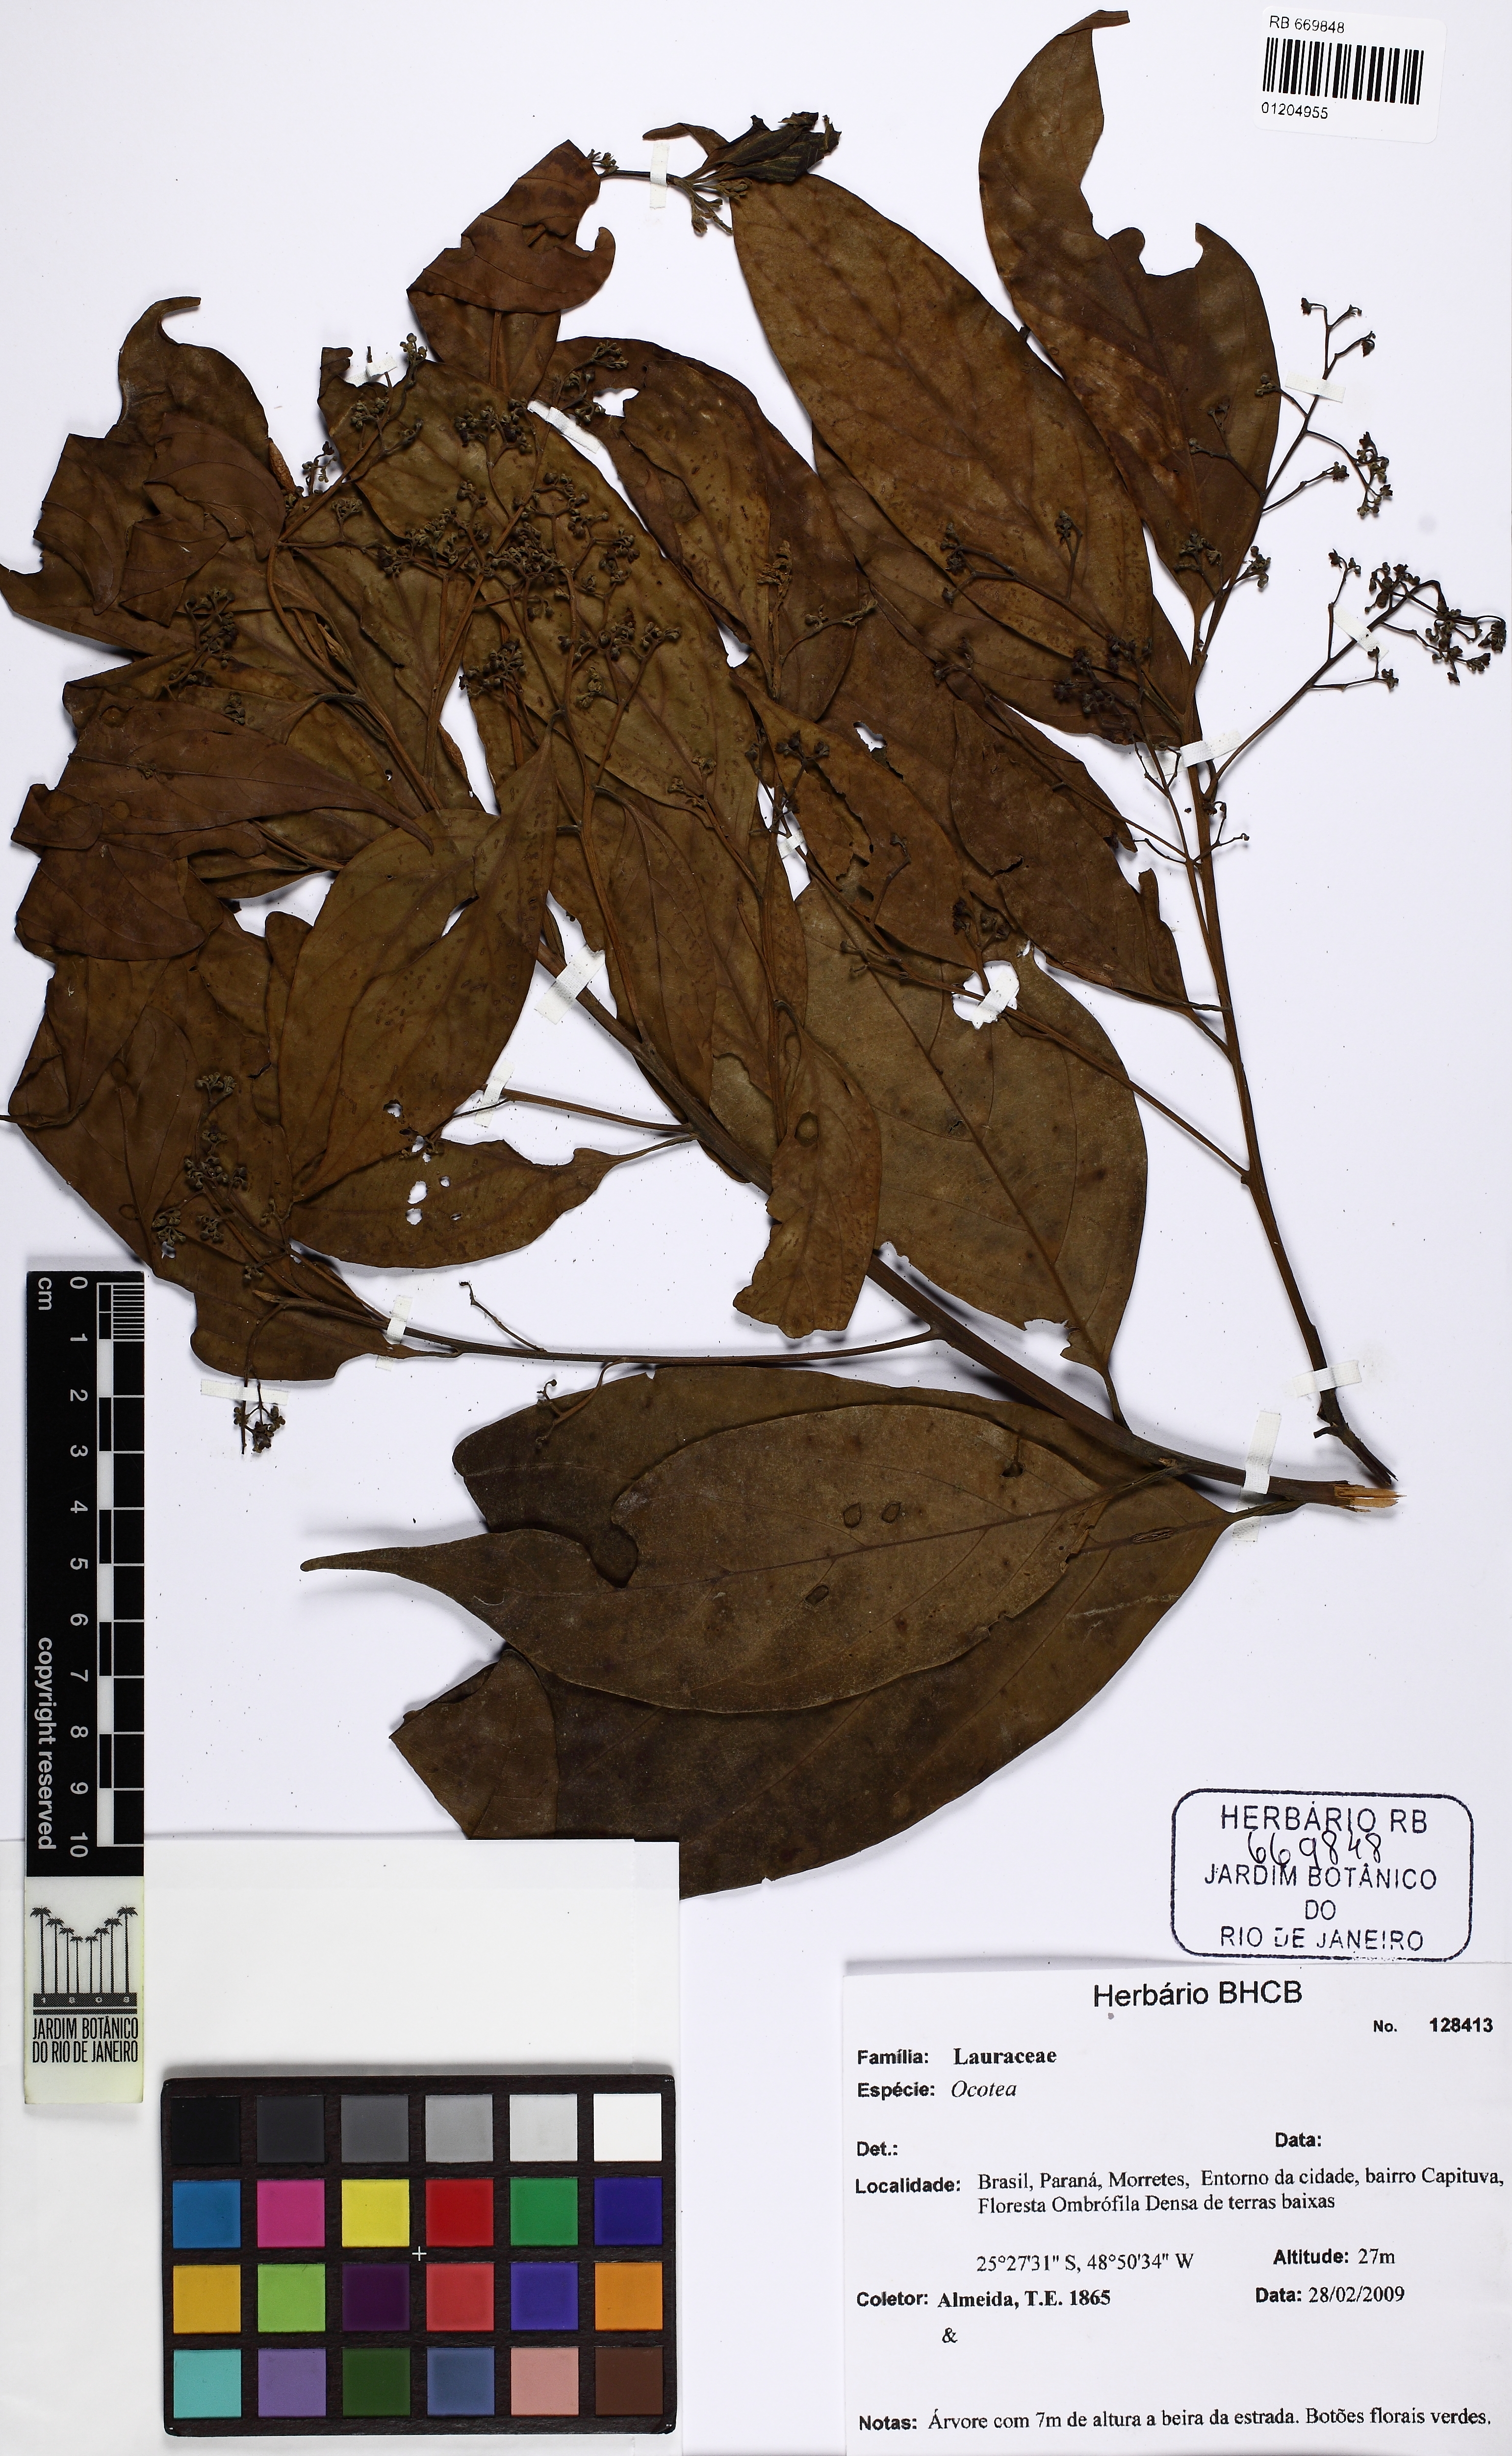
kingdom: Plantae
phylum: Tracheophyta
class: Magnoliopsida
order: Laurales
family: Lauraceae
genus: Nectandra
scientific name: Nectandra membranacea
